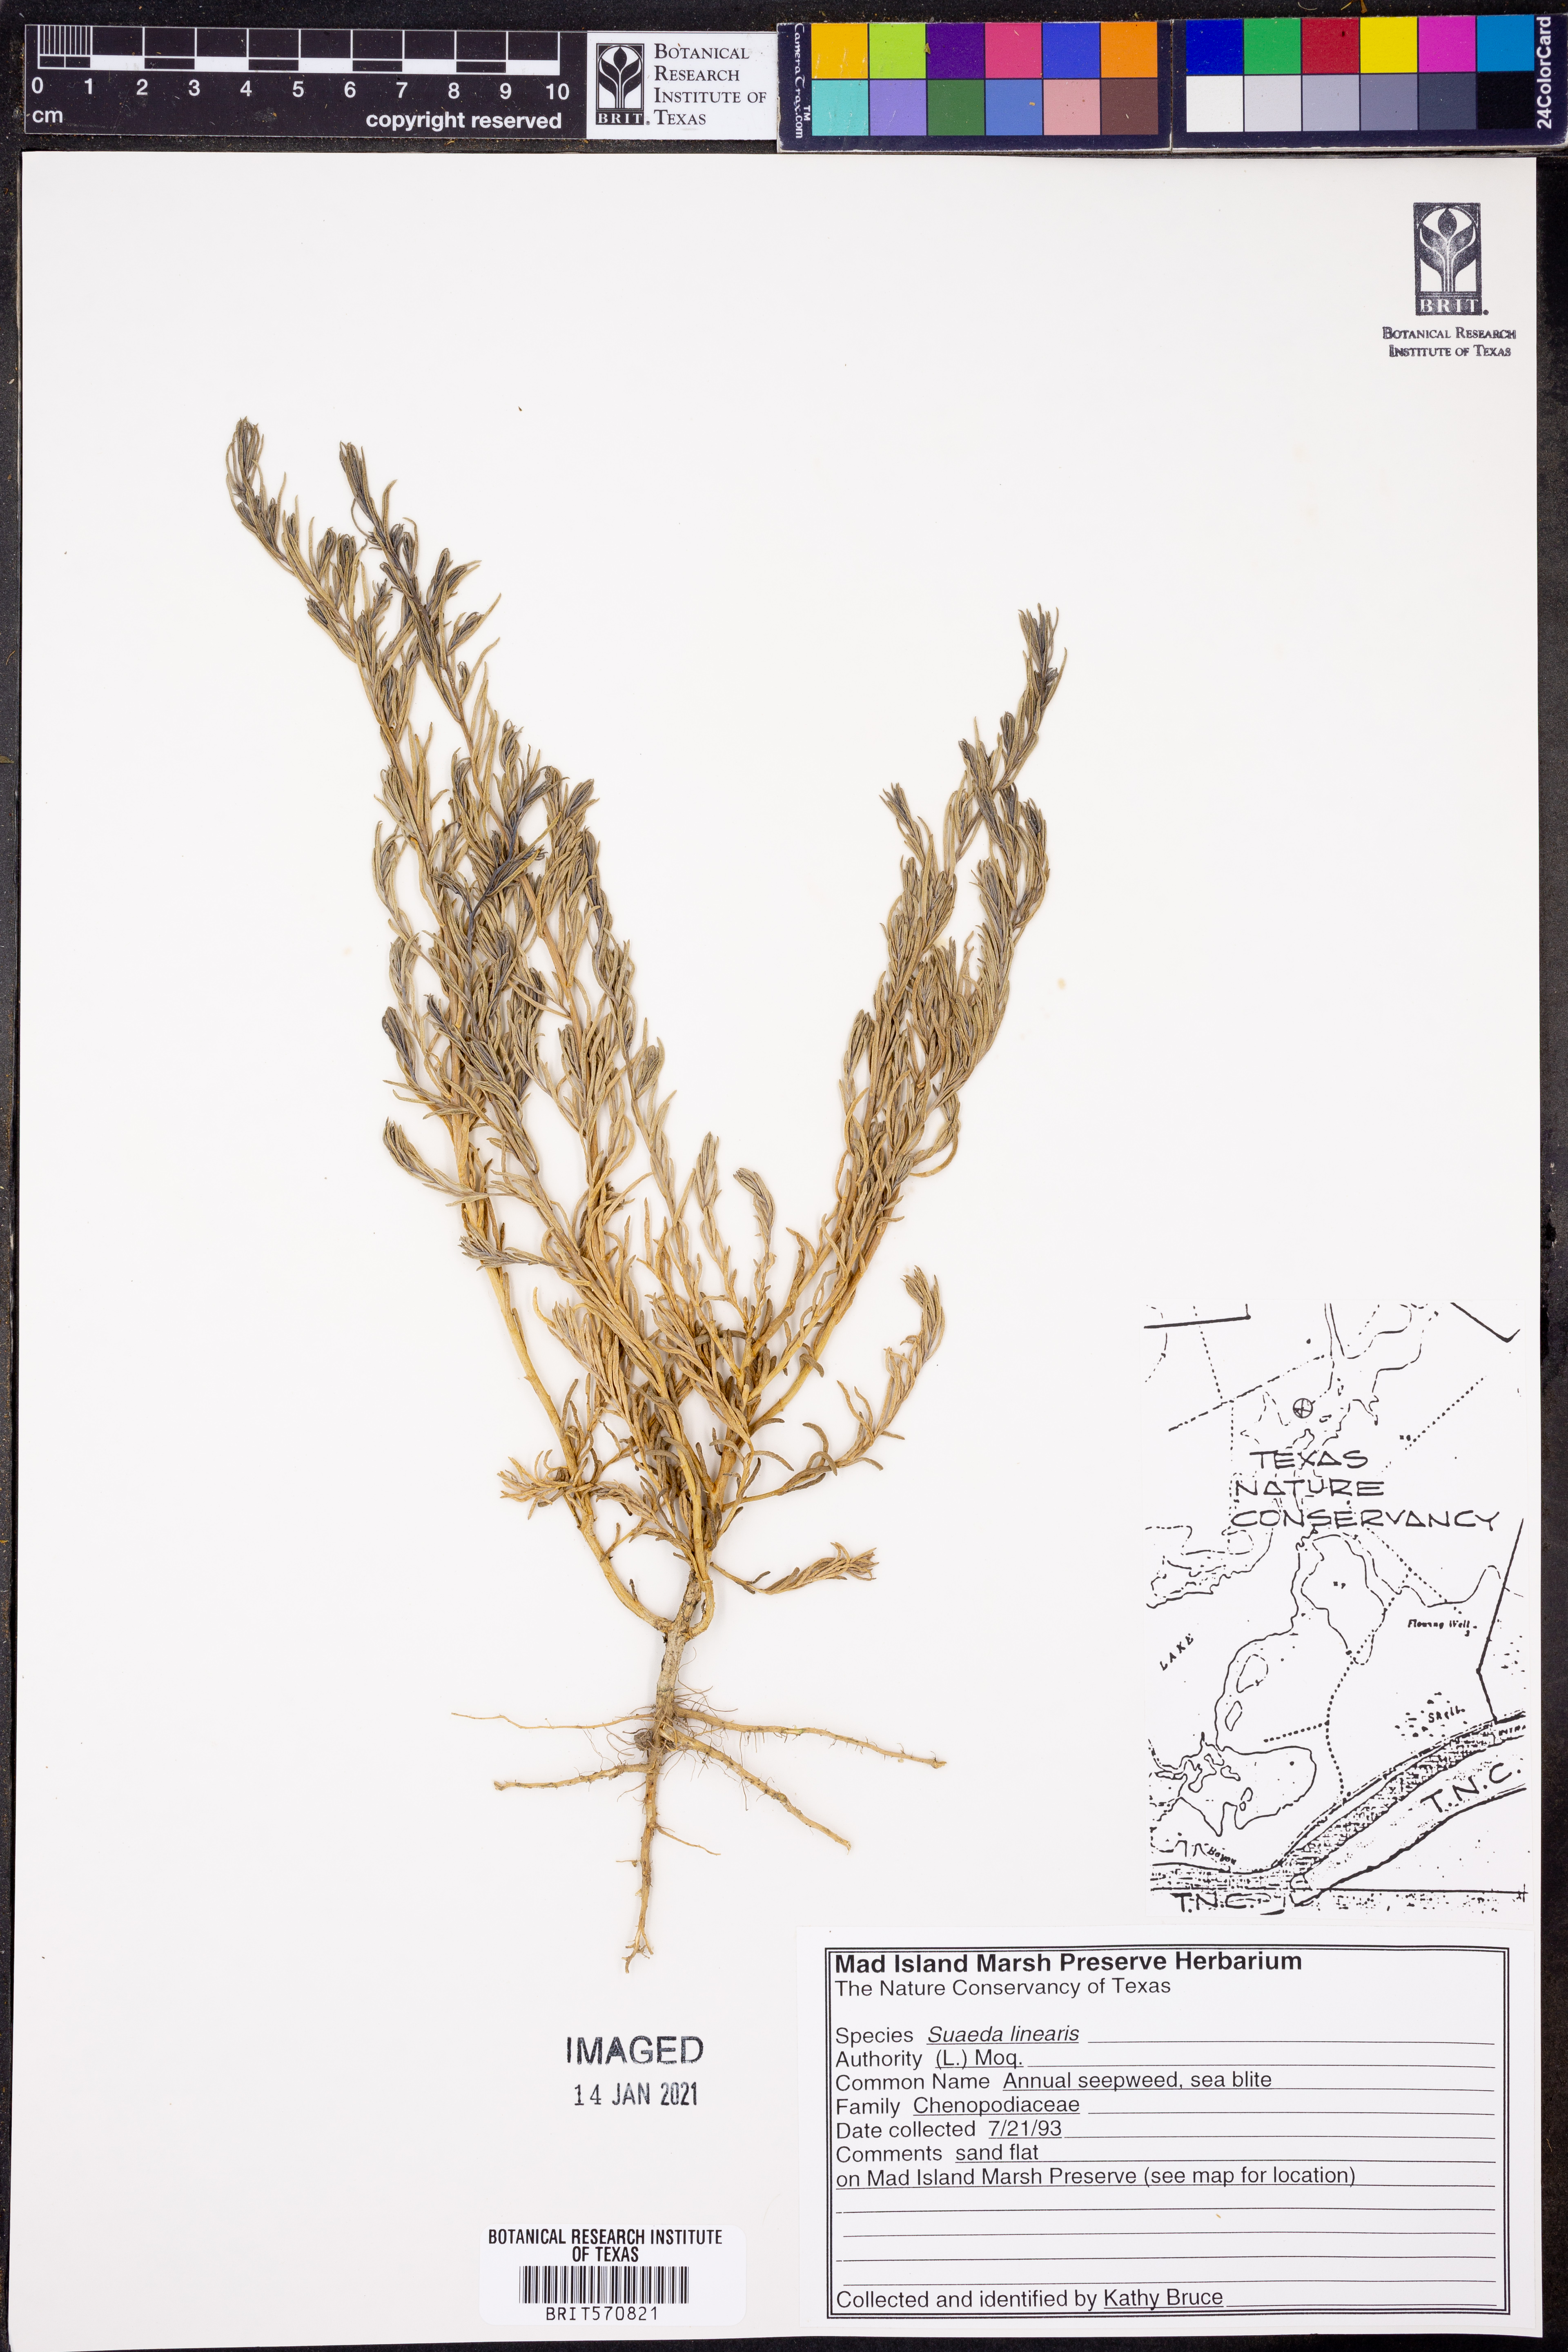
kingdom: Plantae
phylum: Tracheophyta
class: Magnoliopsida
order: Caryophyllales
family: Amaranthaceae
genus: Suaeda
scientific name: Suaeda linearis
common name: Annual seepweed
